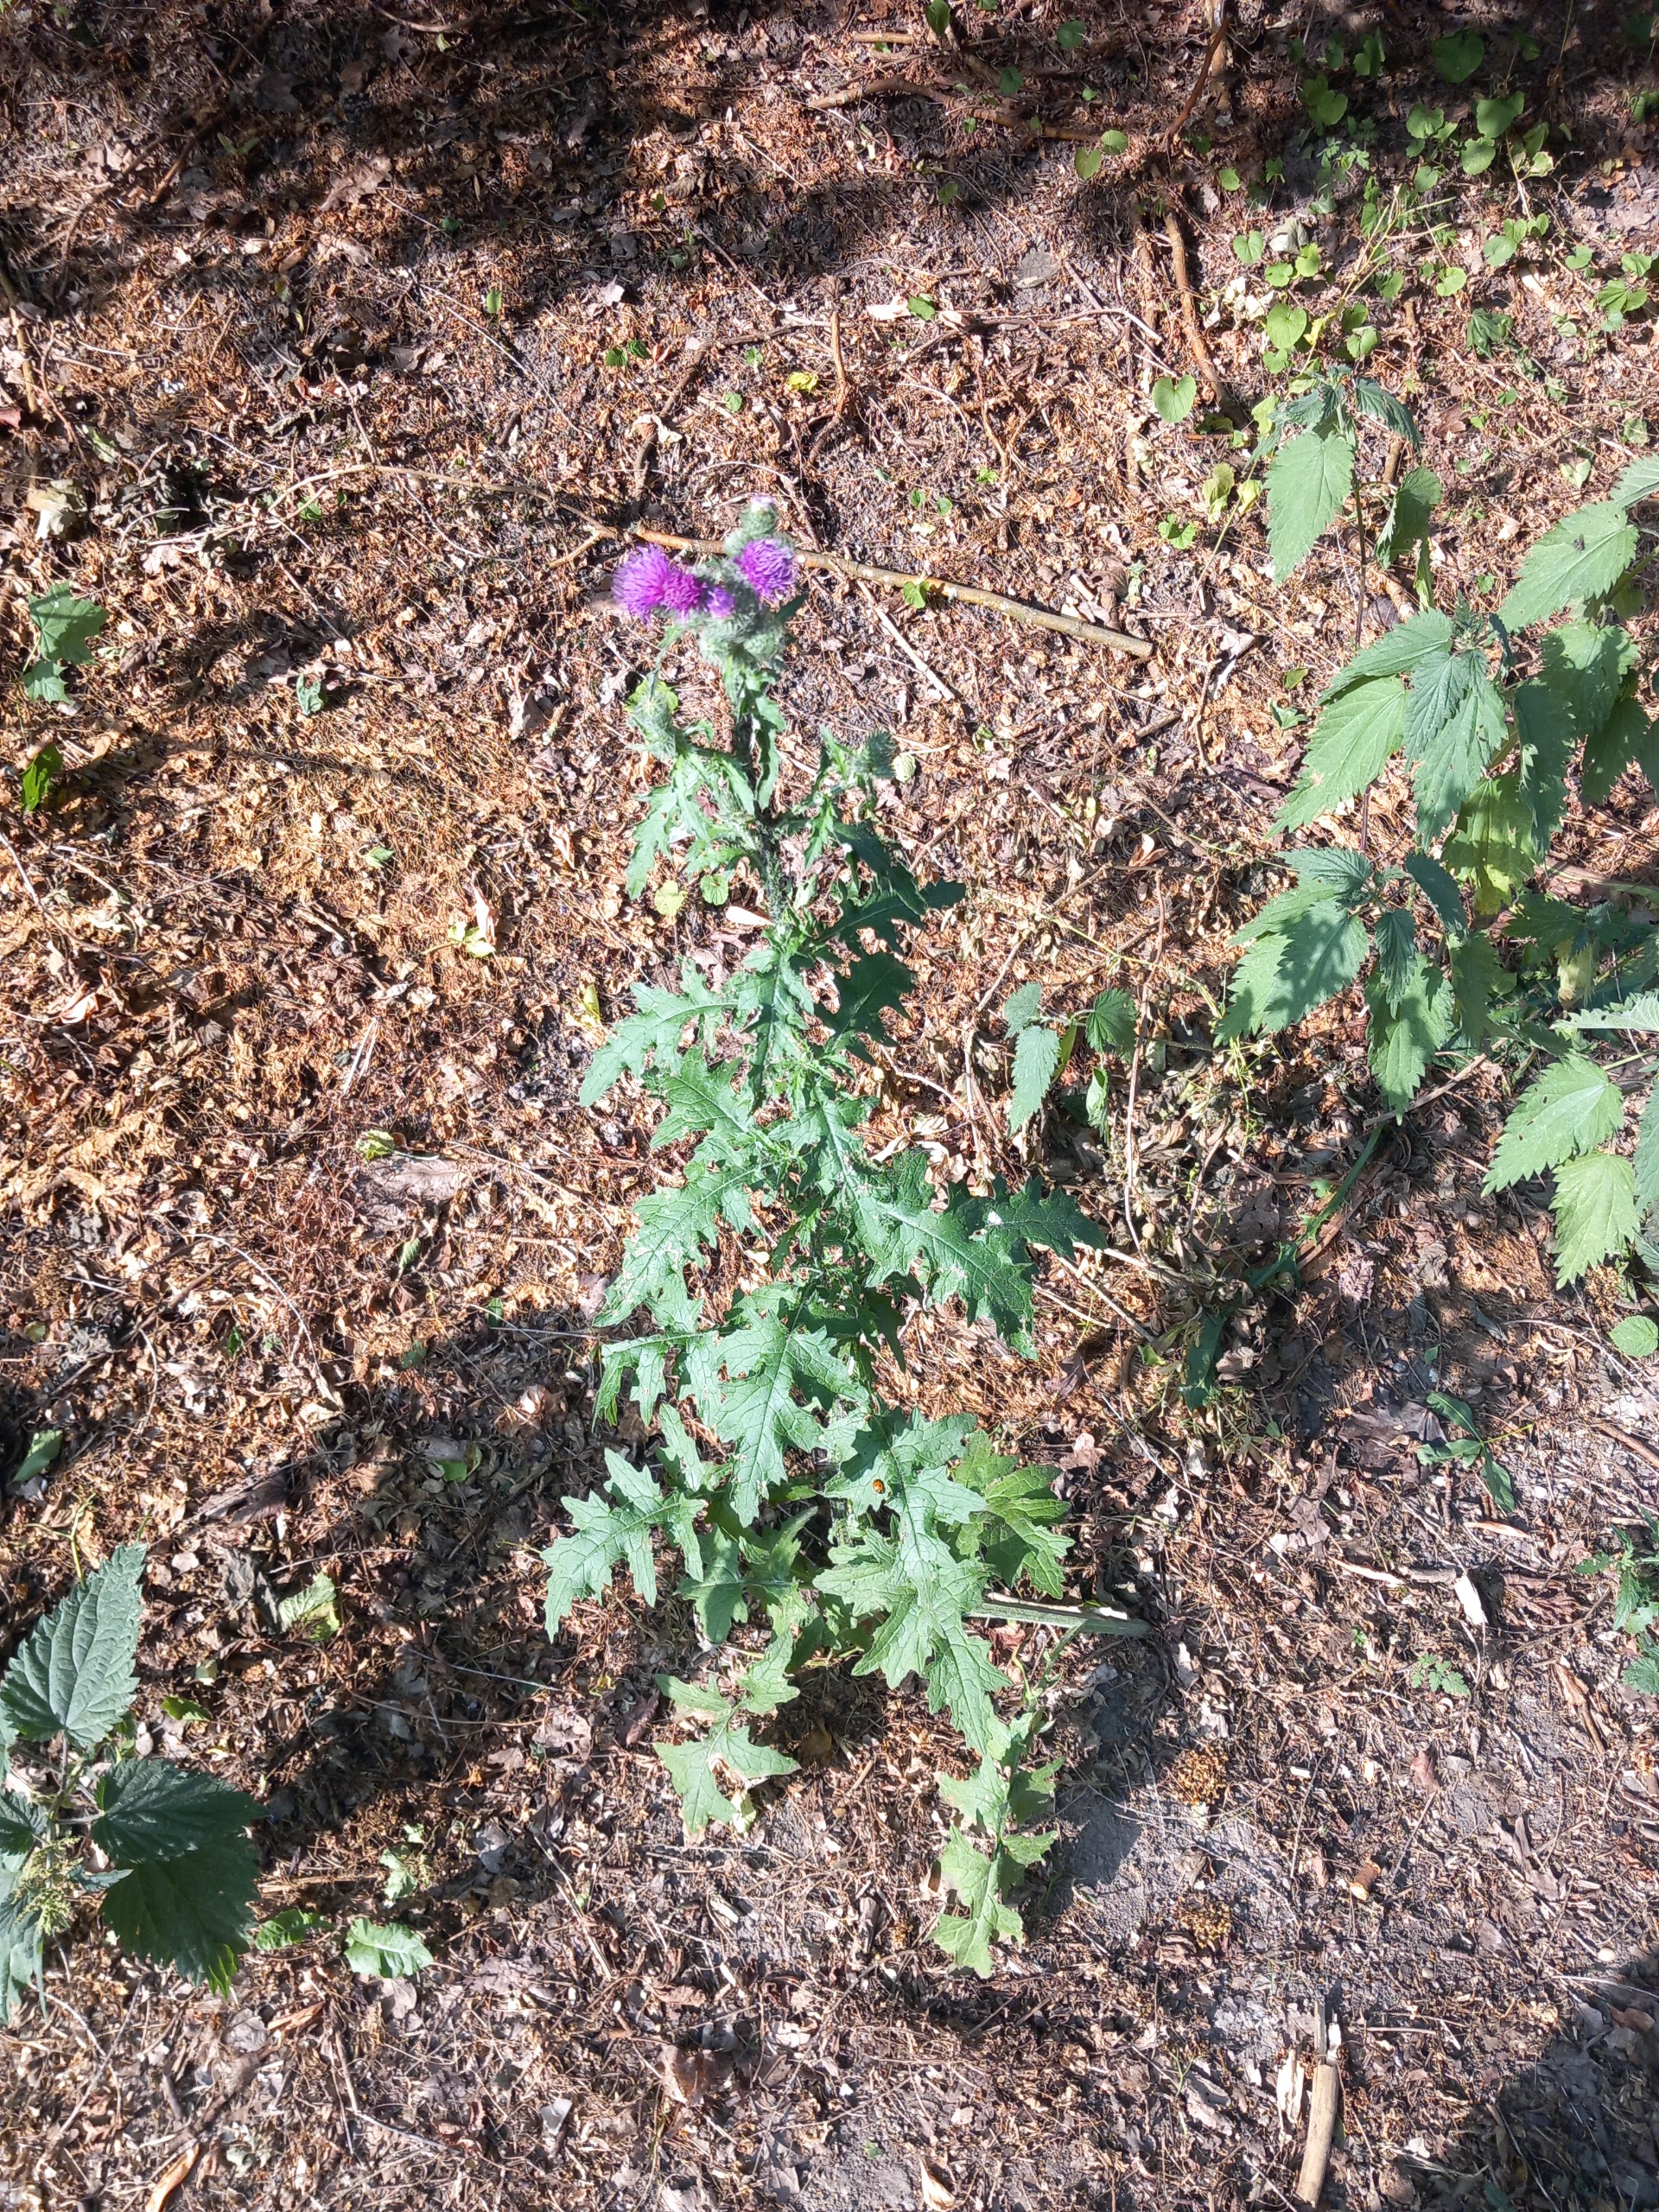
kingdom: Plantae
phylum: Tracheophyta
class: Magnoliopsida
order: Asterales
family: Asteraceae
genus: Carduus
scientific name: Carduus crispus
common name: Kruset tidsel
